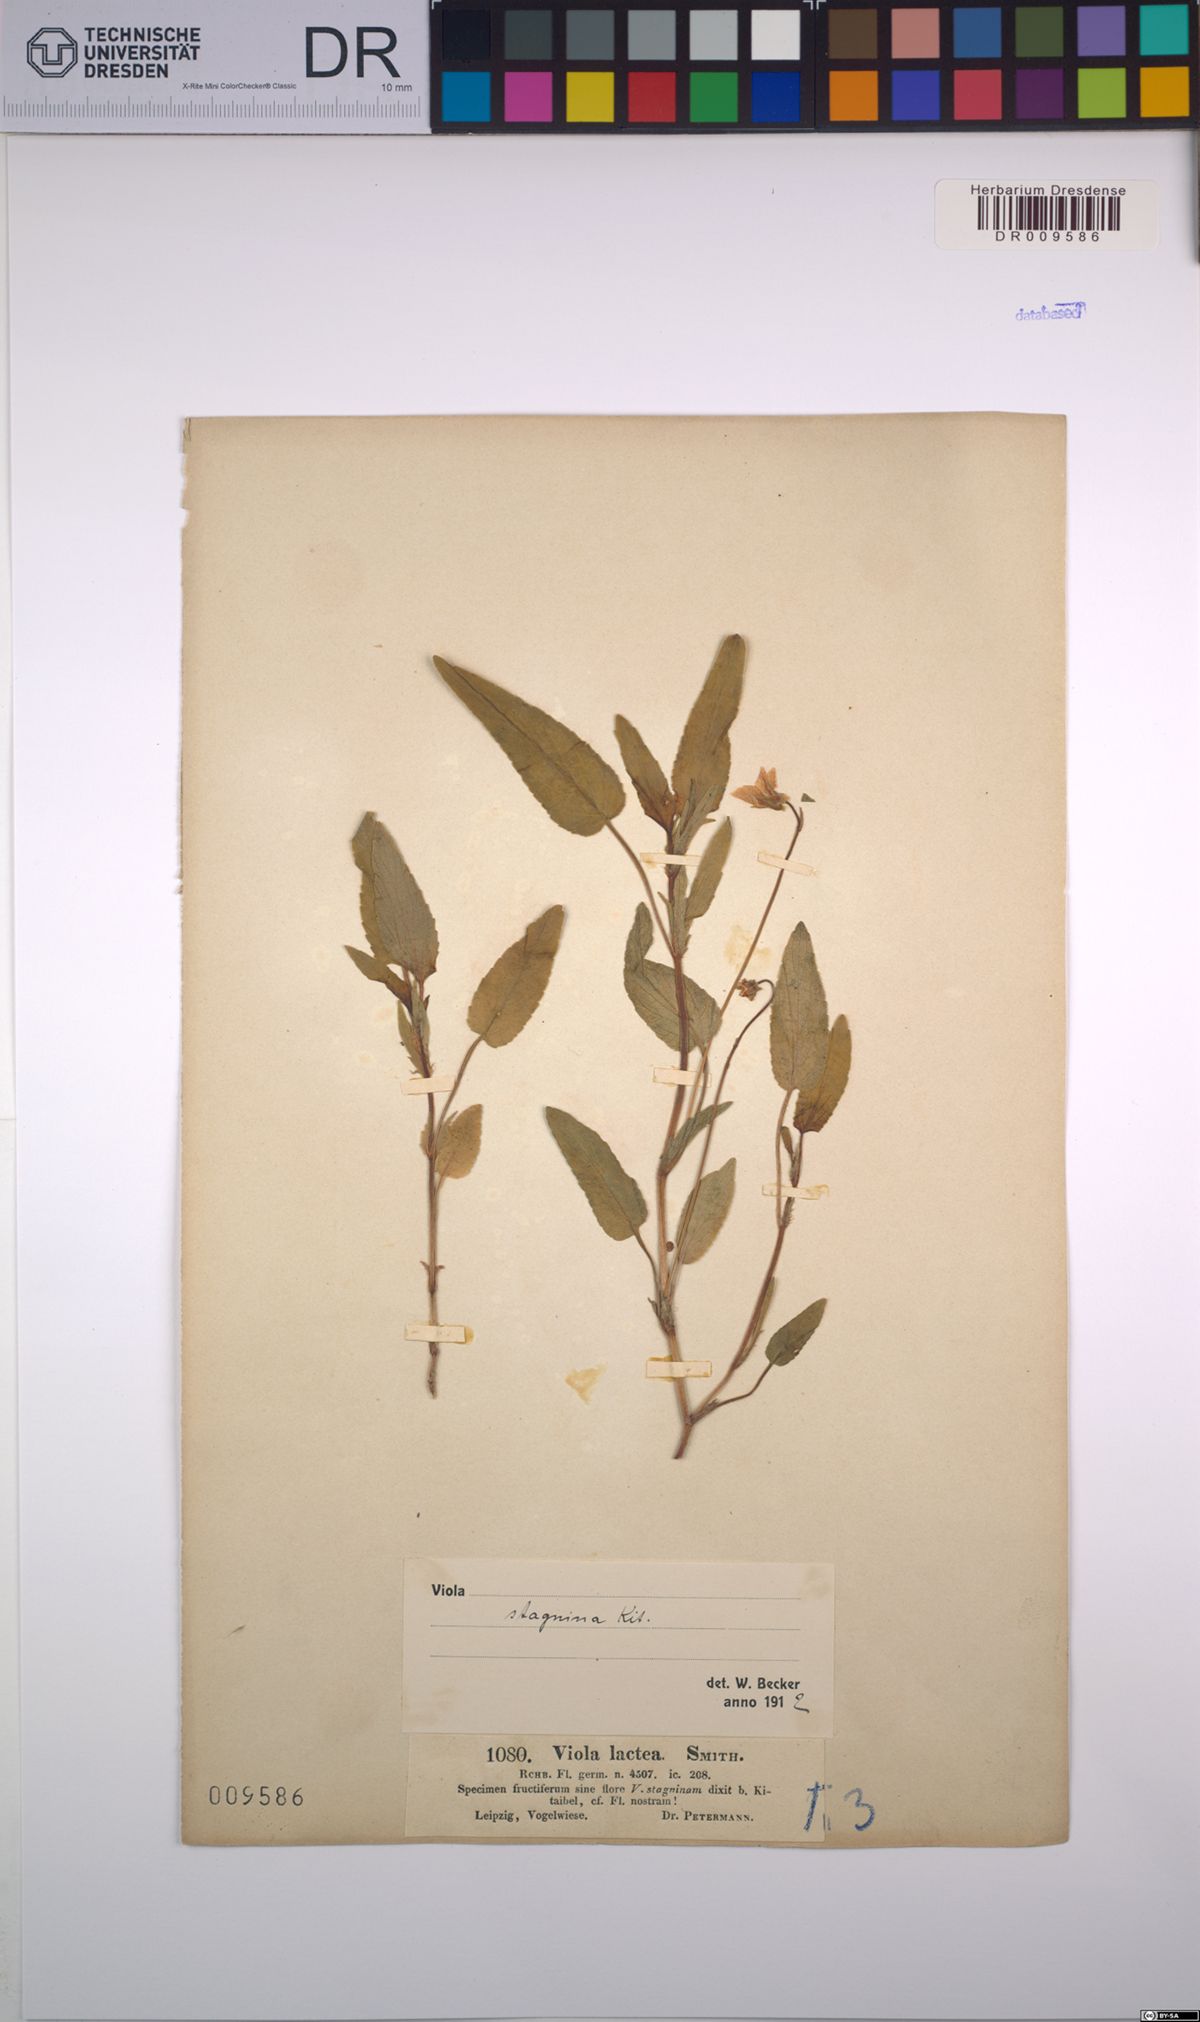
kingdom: Plantae
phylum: Tracheophyta
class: Magnoliopsida
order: Malpighiales
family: Violaceae
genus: Viola
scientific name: Viola stagnina
